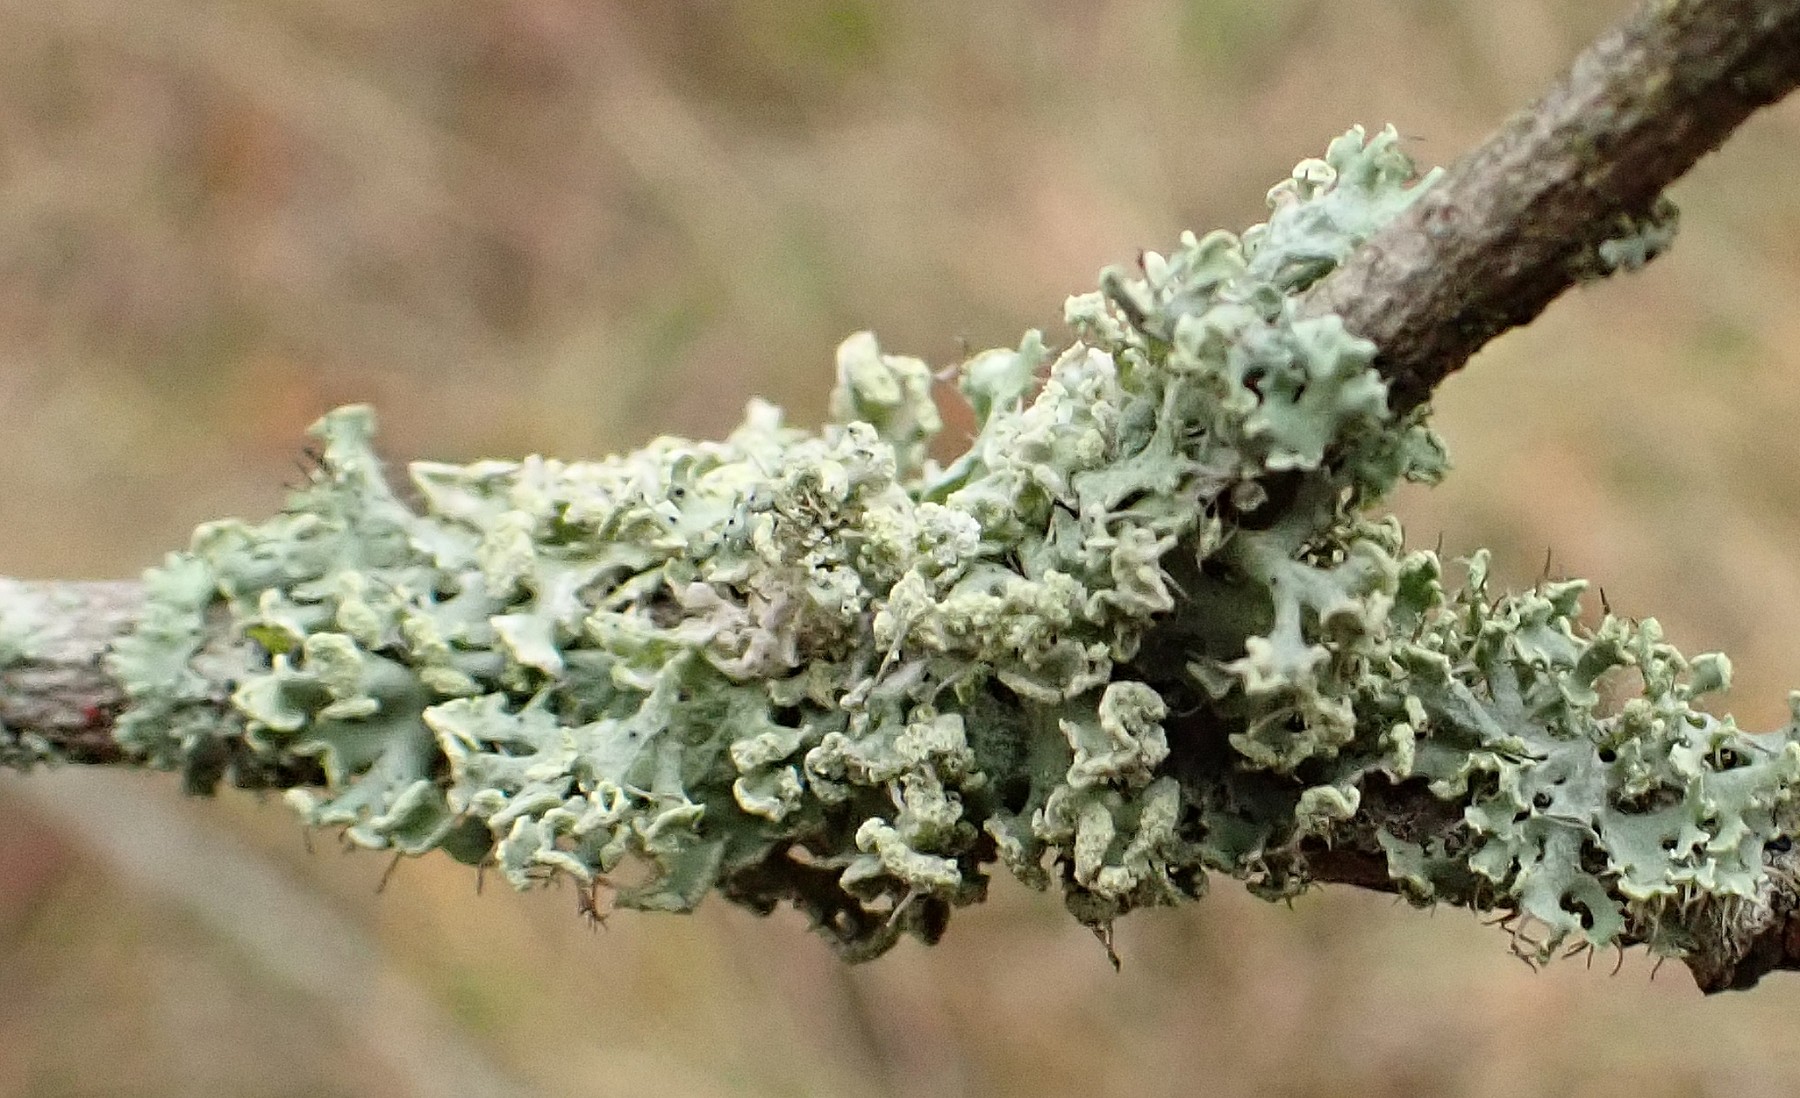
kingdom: Fungi
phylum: Ascomycota
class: Lecanoromycetes
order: Caliciales
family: Physciaceae
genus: Physcia
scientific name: Physcia tenella
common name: spæd rosetlav
